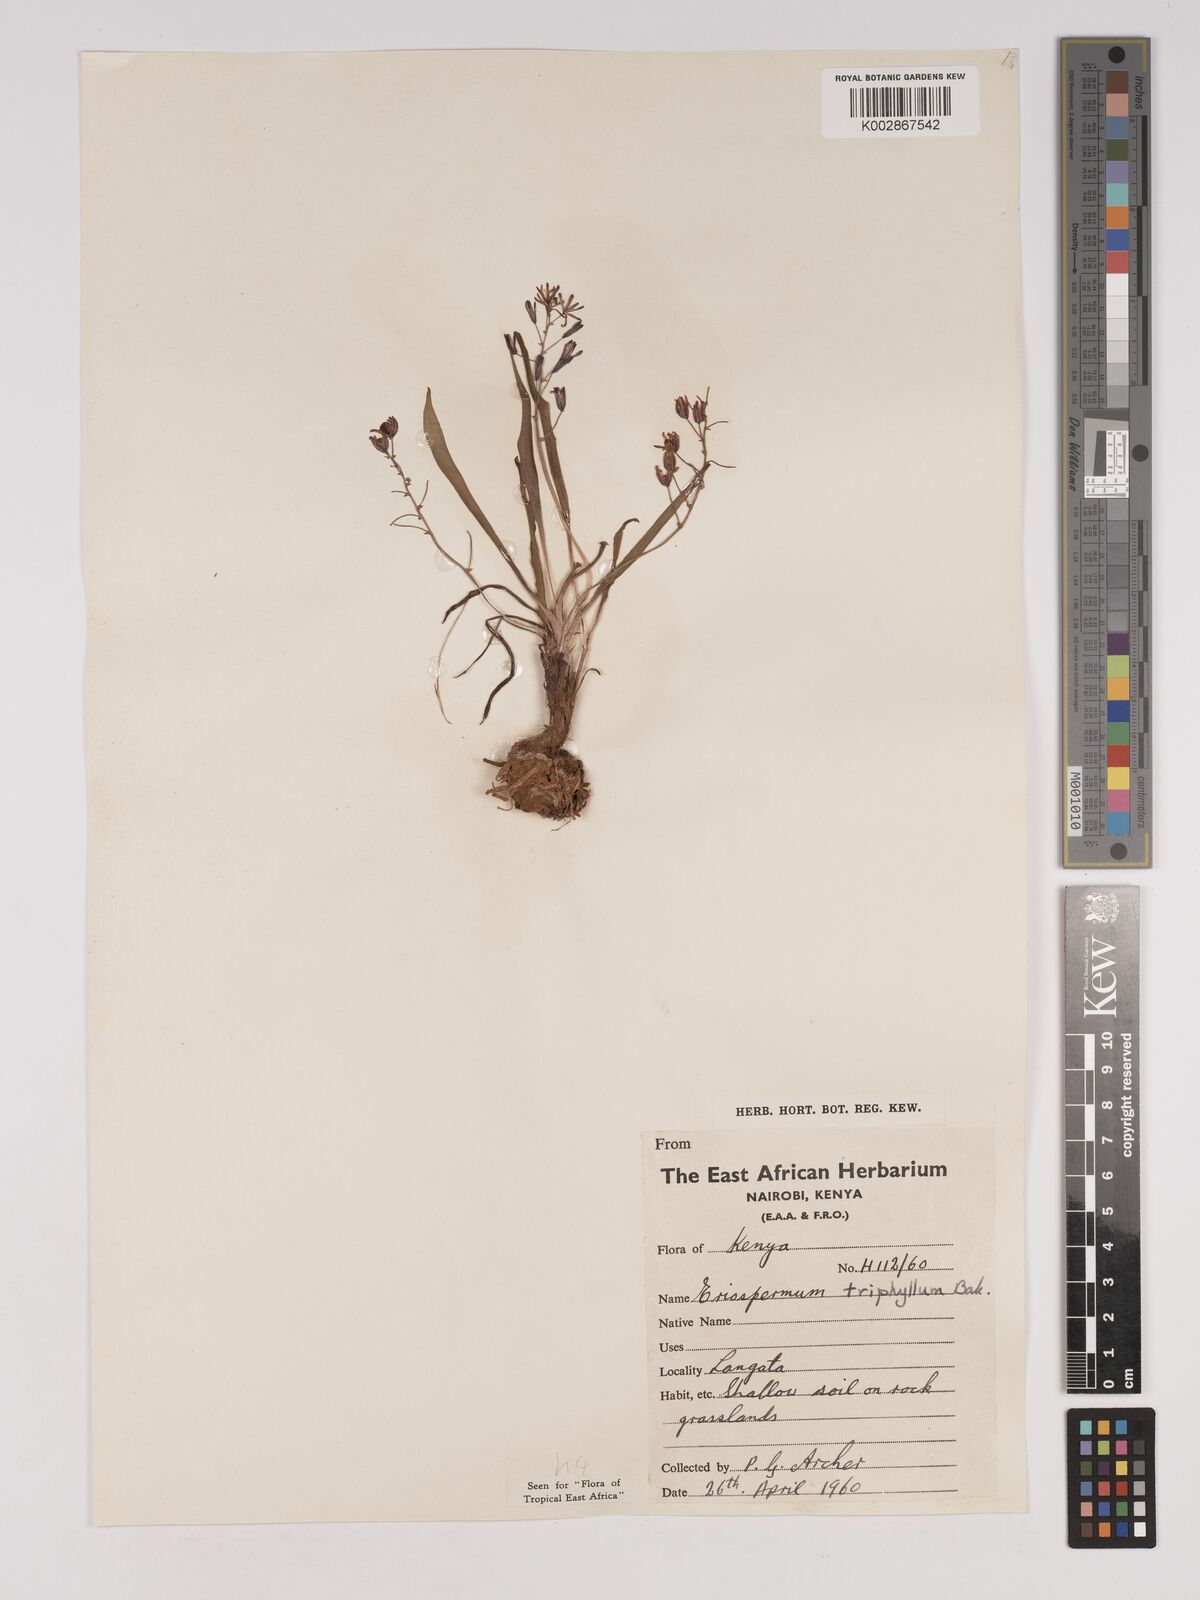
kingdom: Plantae
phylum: Tracheophyta
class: Liliopsida
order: Asparagales
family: Asparagaceae
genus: Eriospermum
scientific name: Eriospermum triphyllum
